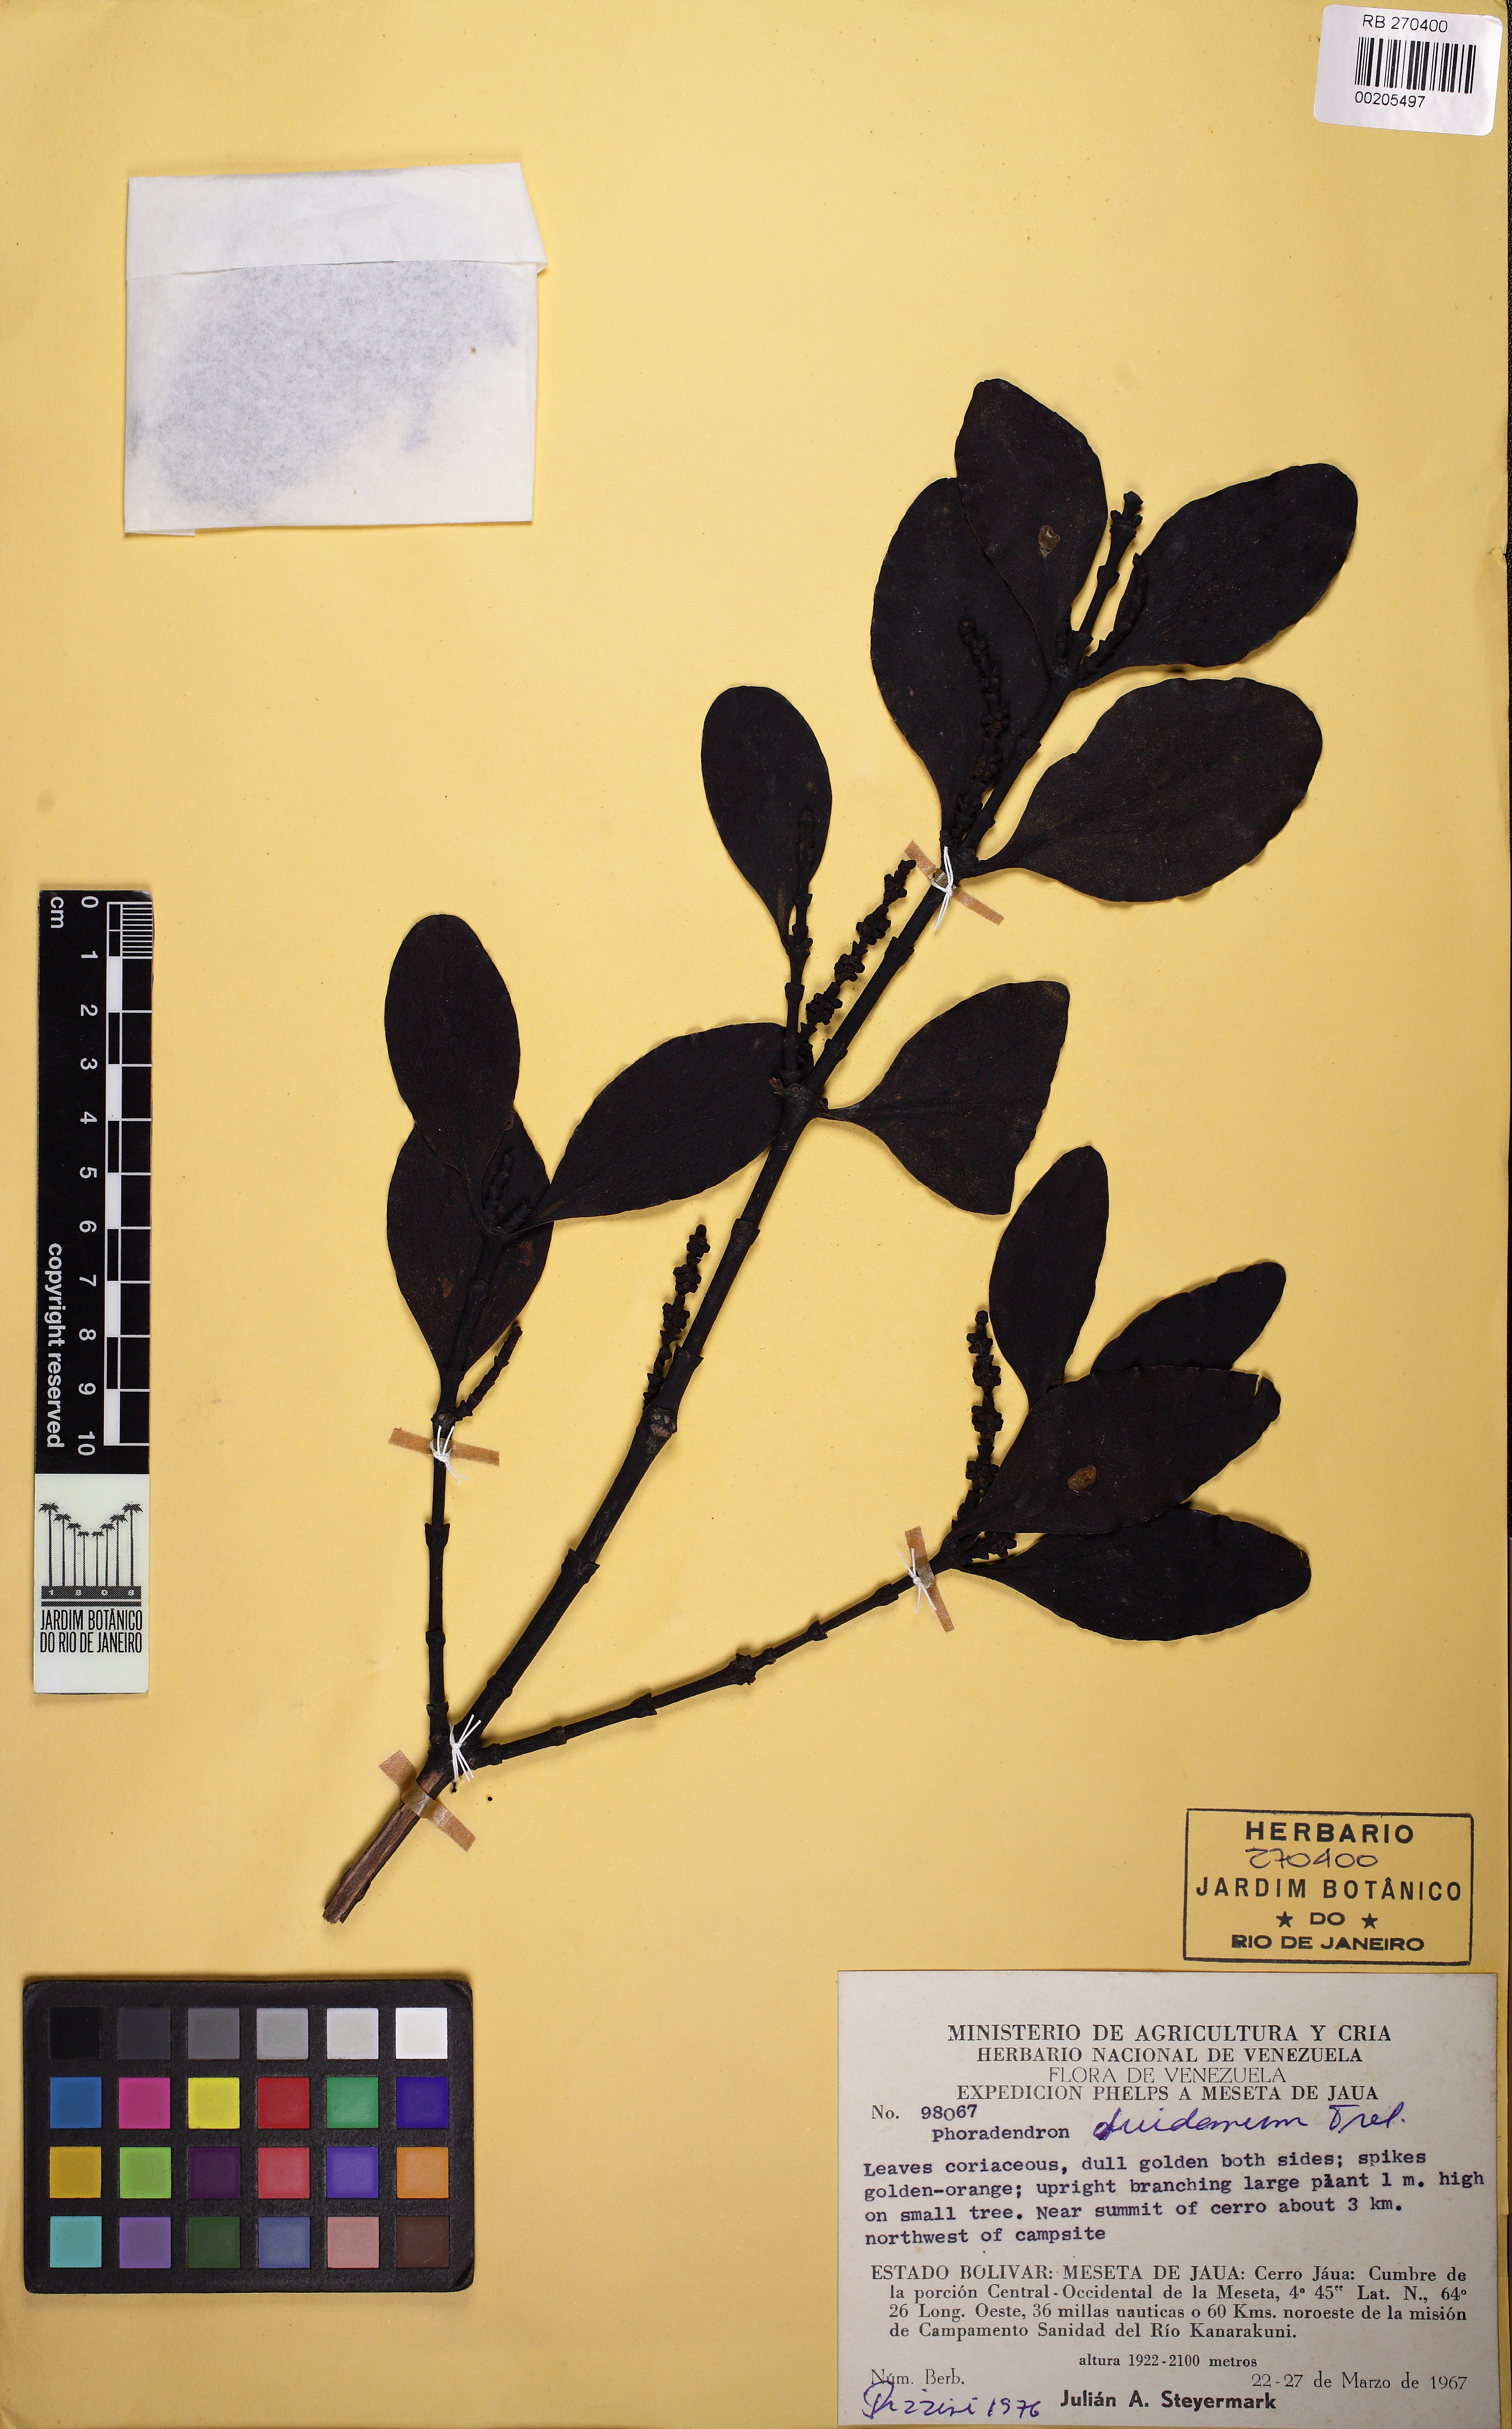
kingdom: Plantae
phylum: Tracheophyta
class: Magnoliopsida
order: Santalales
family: Viscaceae
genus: Dendrophthora
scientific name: Dendrophthora obliqua
